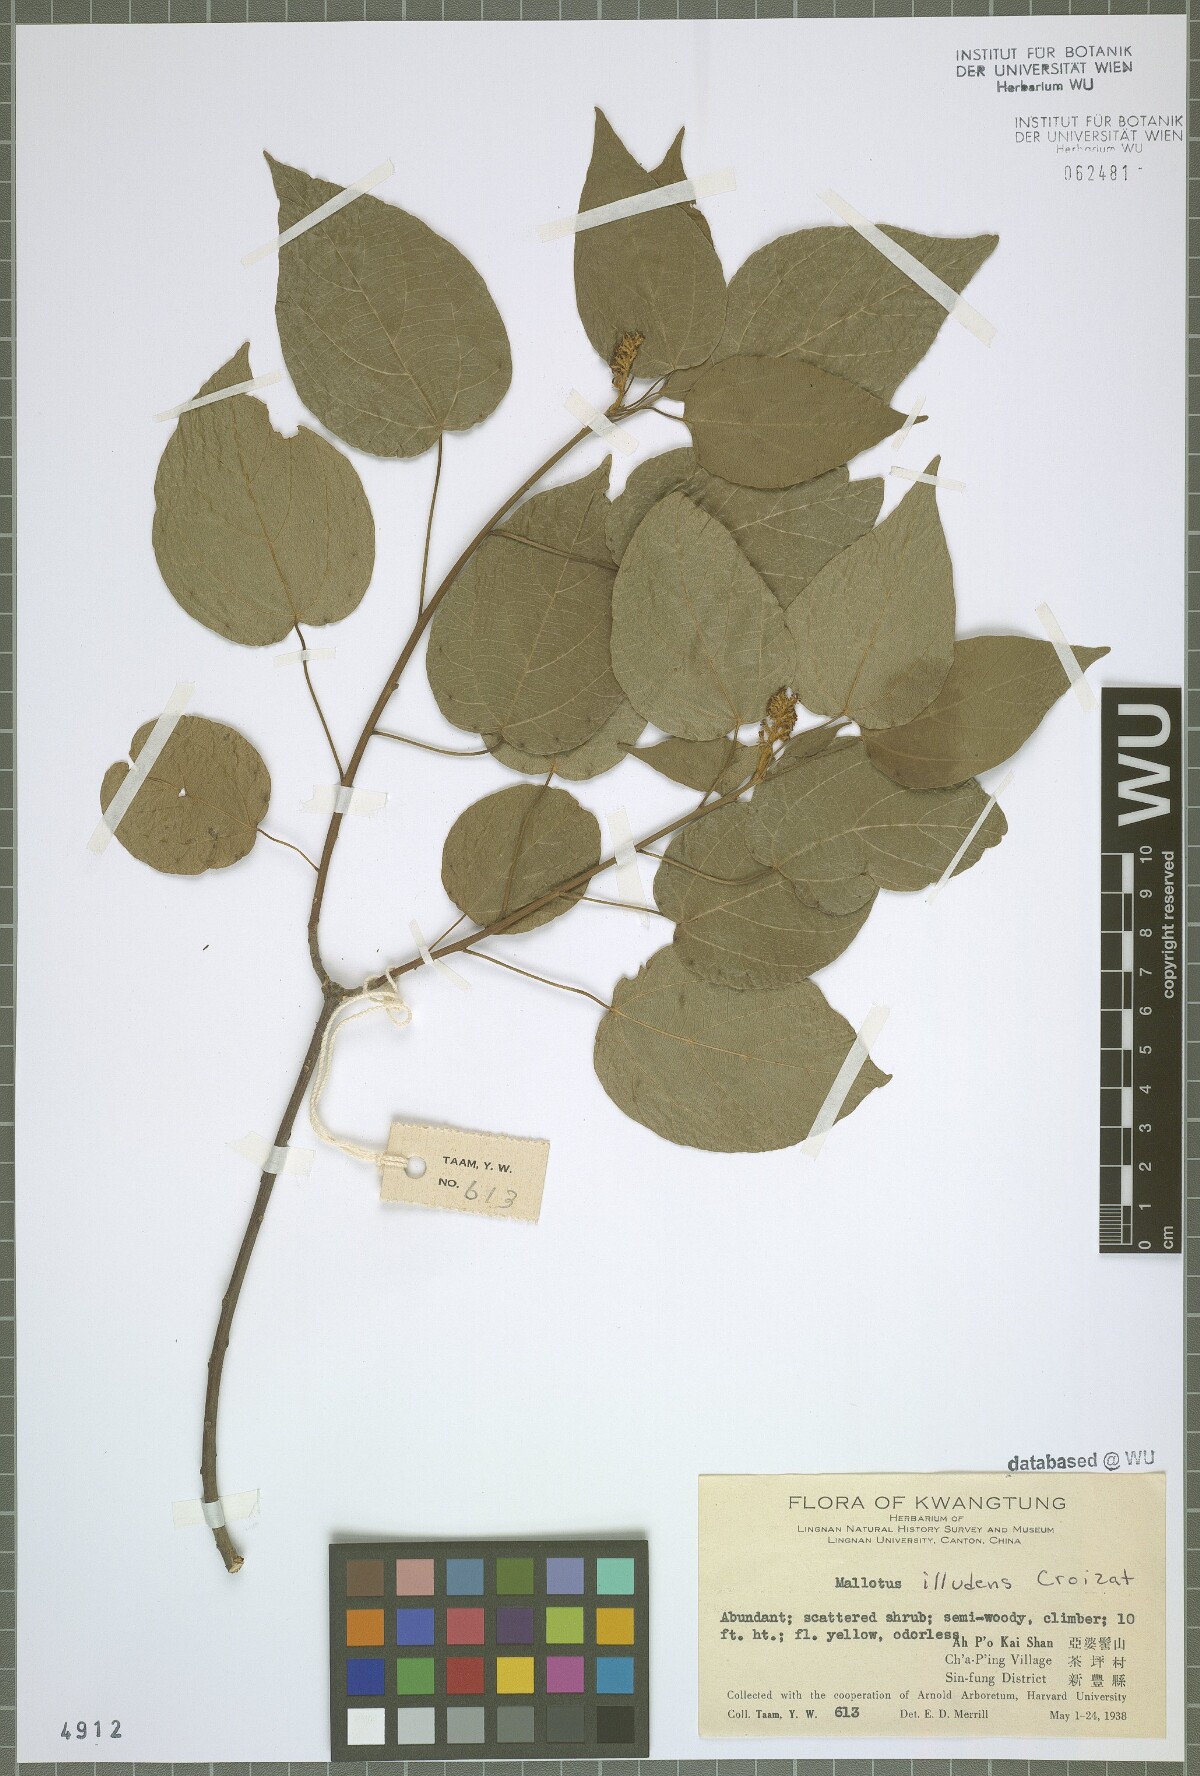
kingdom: Plantae
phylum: Tracheophyta
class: Magnoliopsida
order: Malpighiales
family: Euphorbiaceae
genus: Mallotus
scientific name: Mallotus repandus
